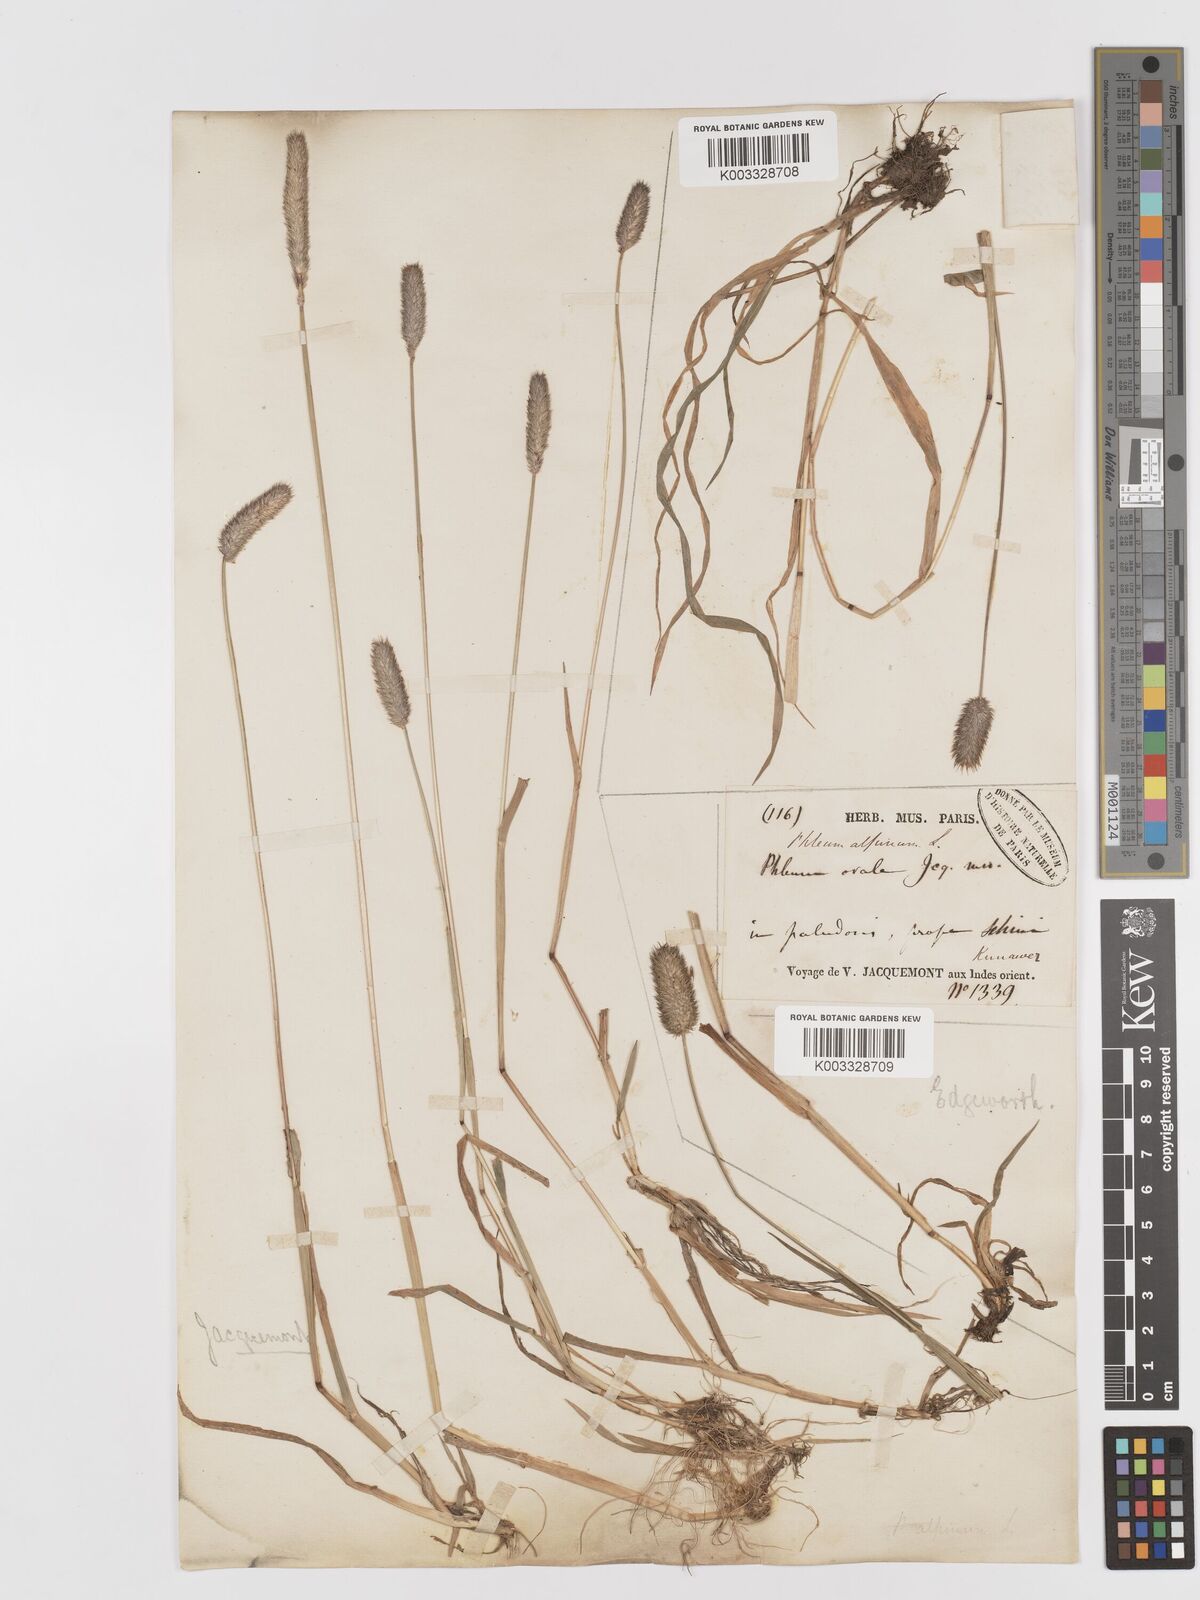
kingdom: Plantae
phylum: Tracheophyta
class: Liliopsida
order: Poales
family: Poaceae
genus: Phleum
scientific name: Phleum alpinum
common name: Alpine cat's-tail
